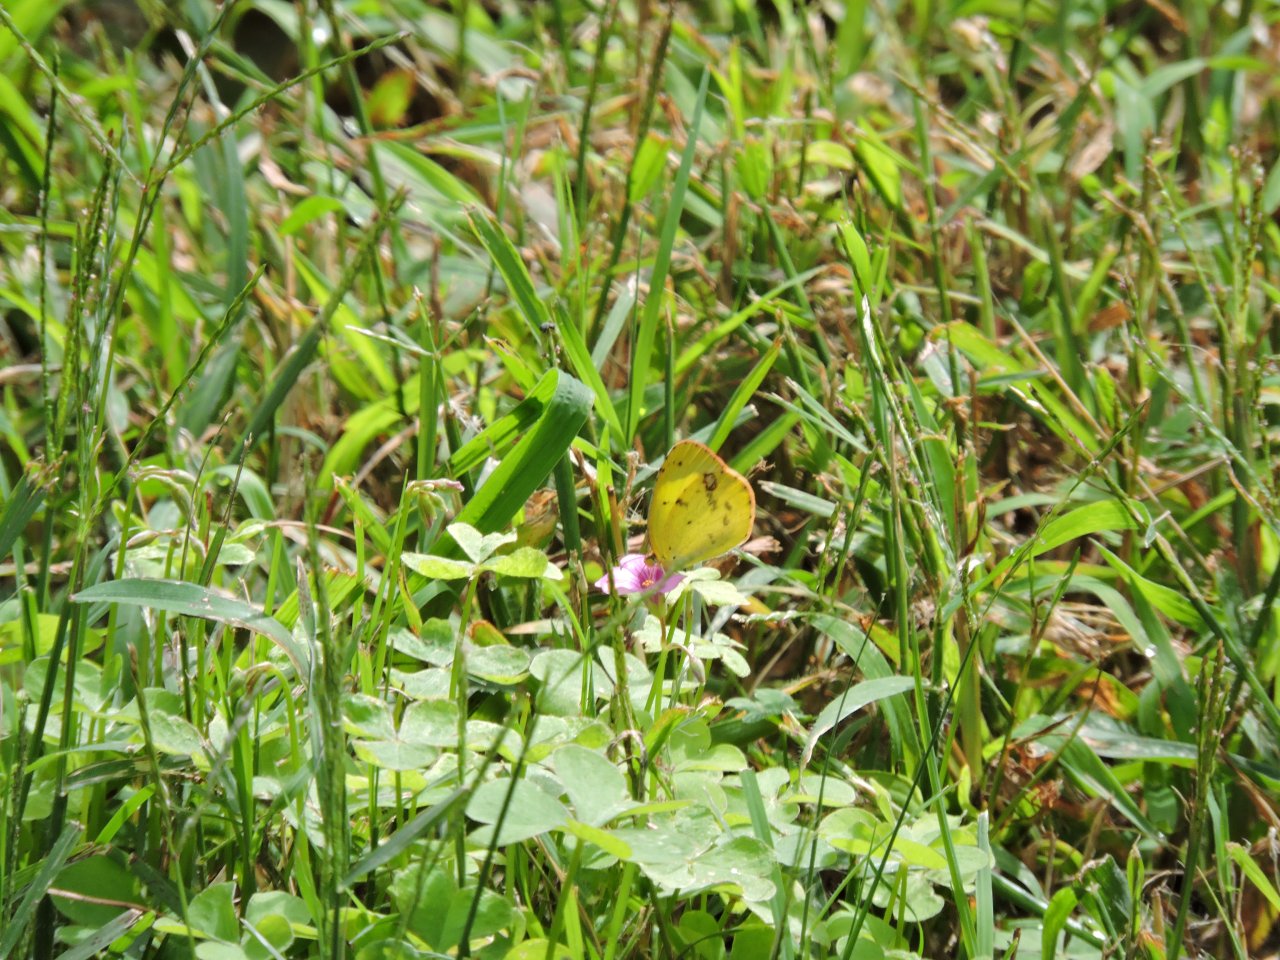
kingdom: Animalia
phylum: Arthropoda
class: Insecta
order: Lepidoptera
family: Pieridae
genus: Pyrisitia
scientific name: Pyrisitia lisa
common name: Little Yellow
